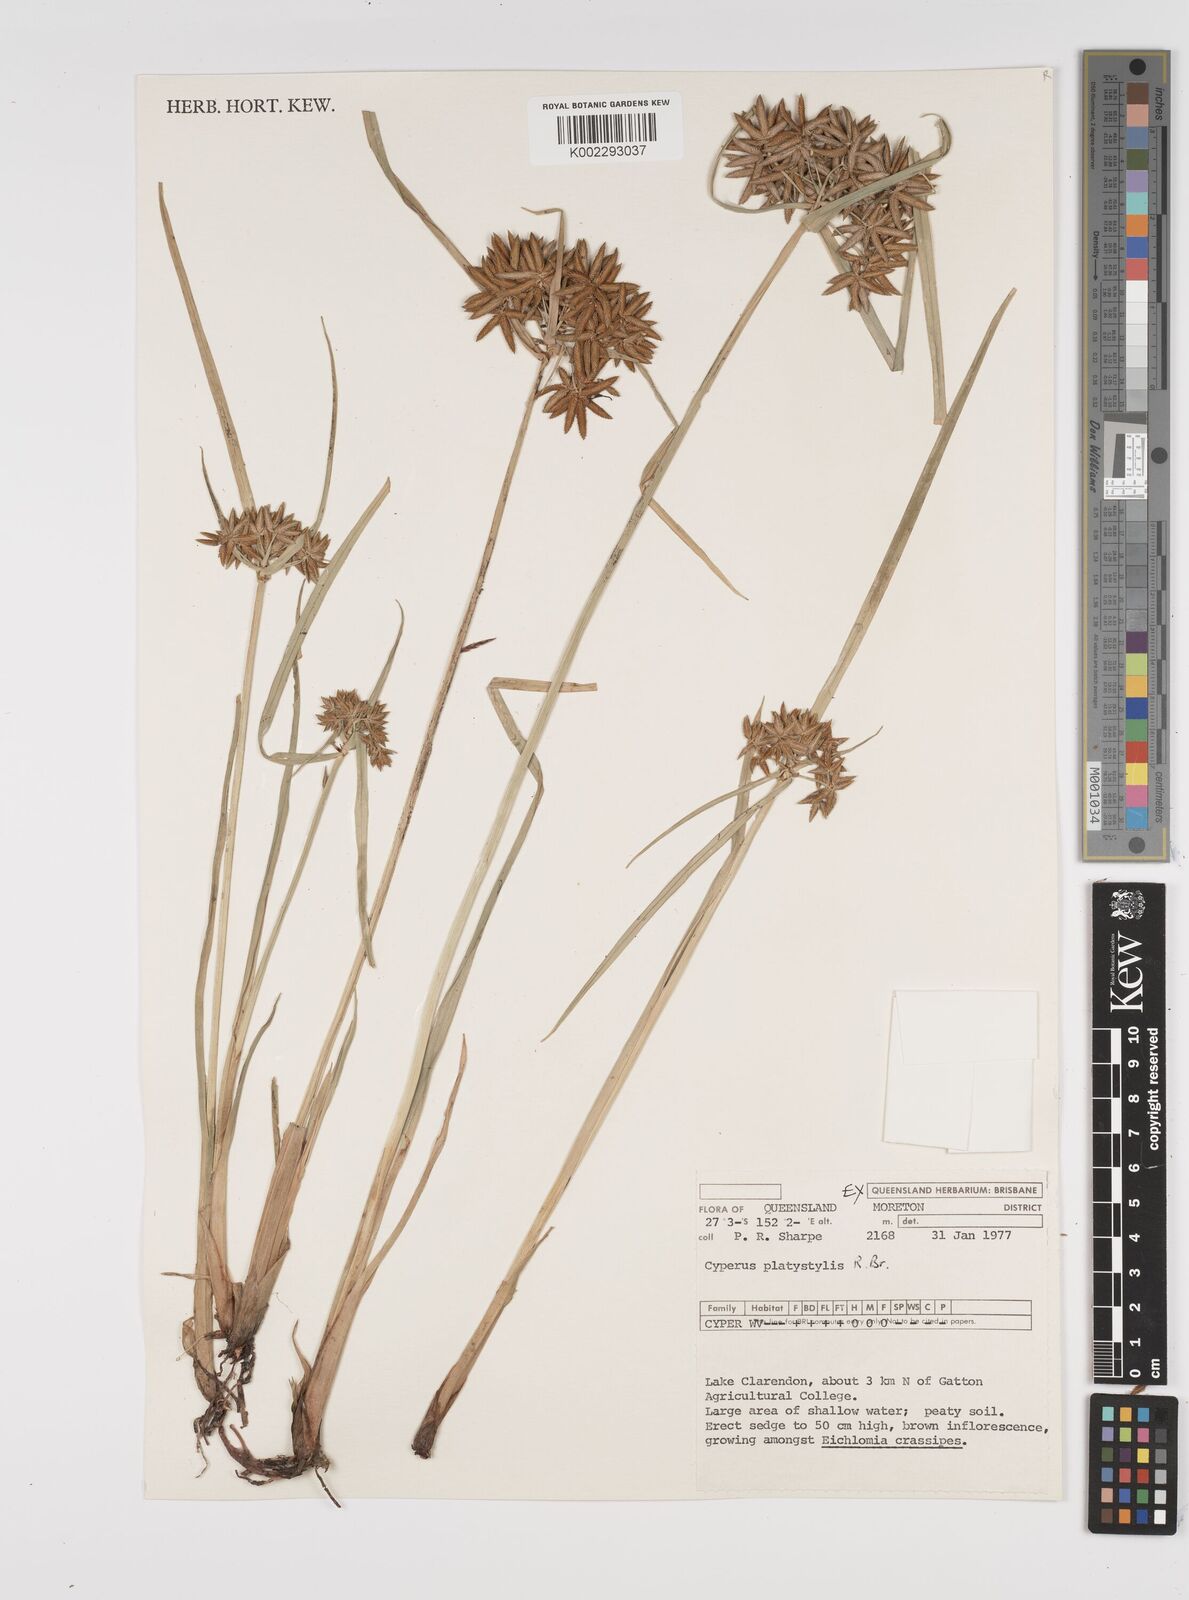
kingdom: Plantae
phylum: Tracheophyta
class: Liliopsida
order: Poales
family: Cyperaceae
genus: Cyperus
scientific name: Cyperus platystylis
